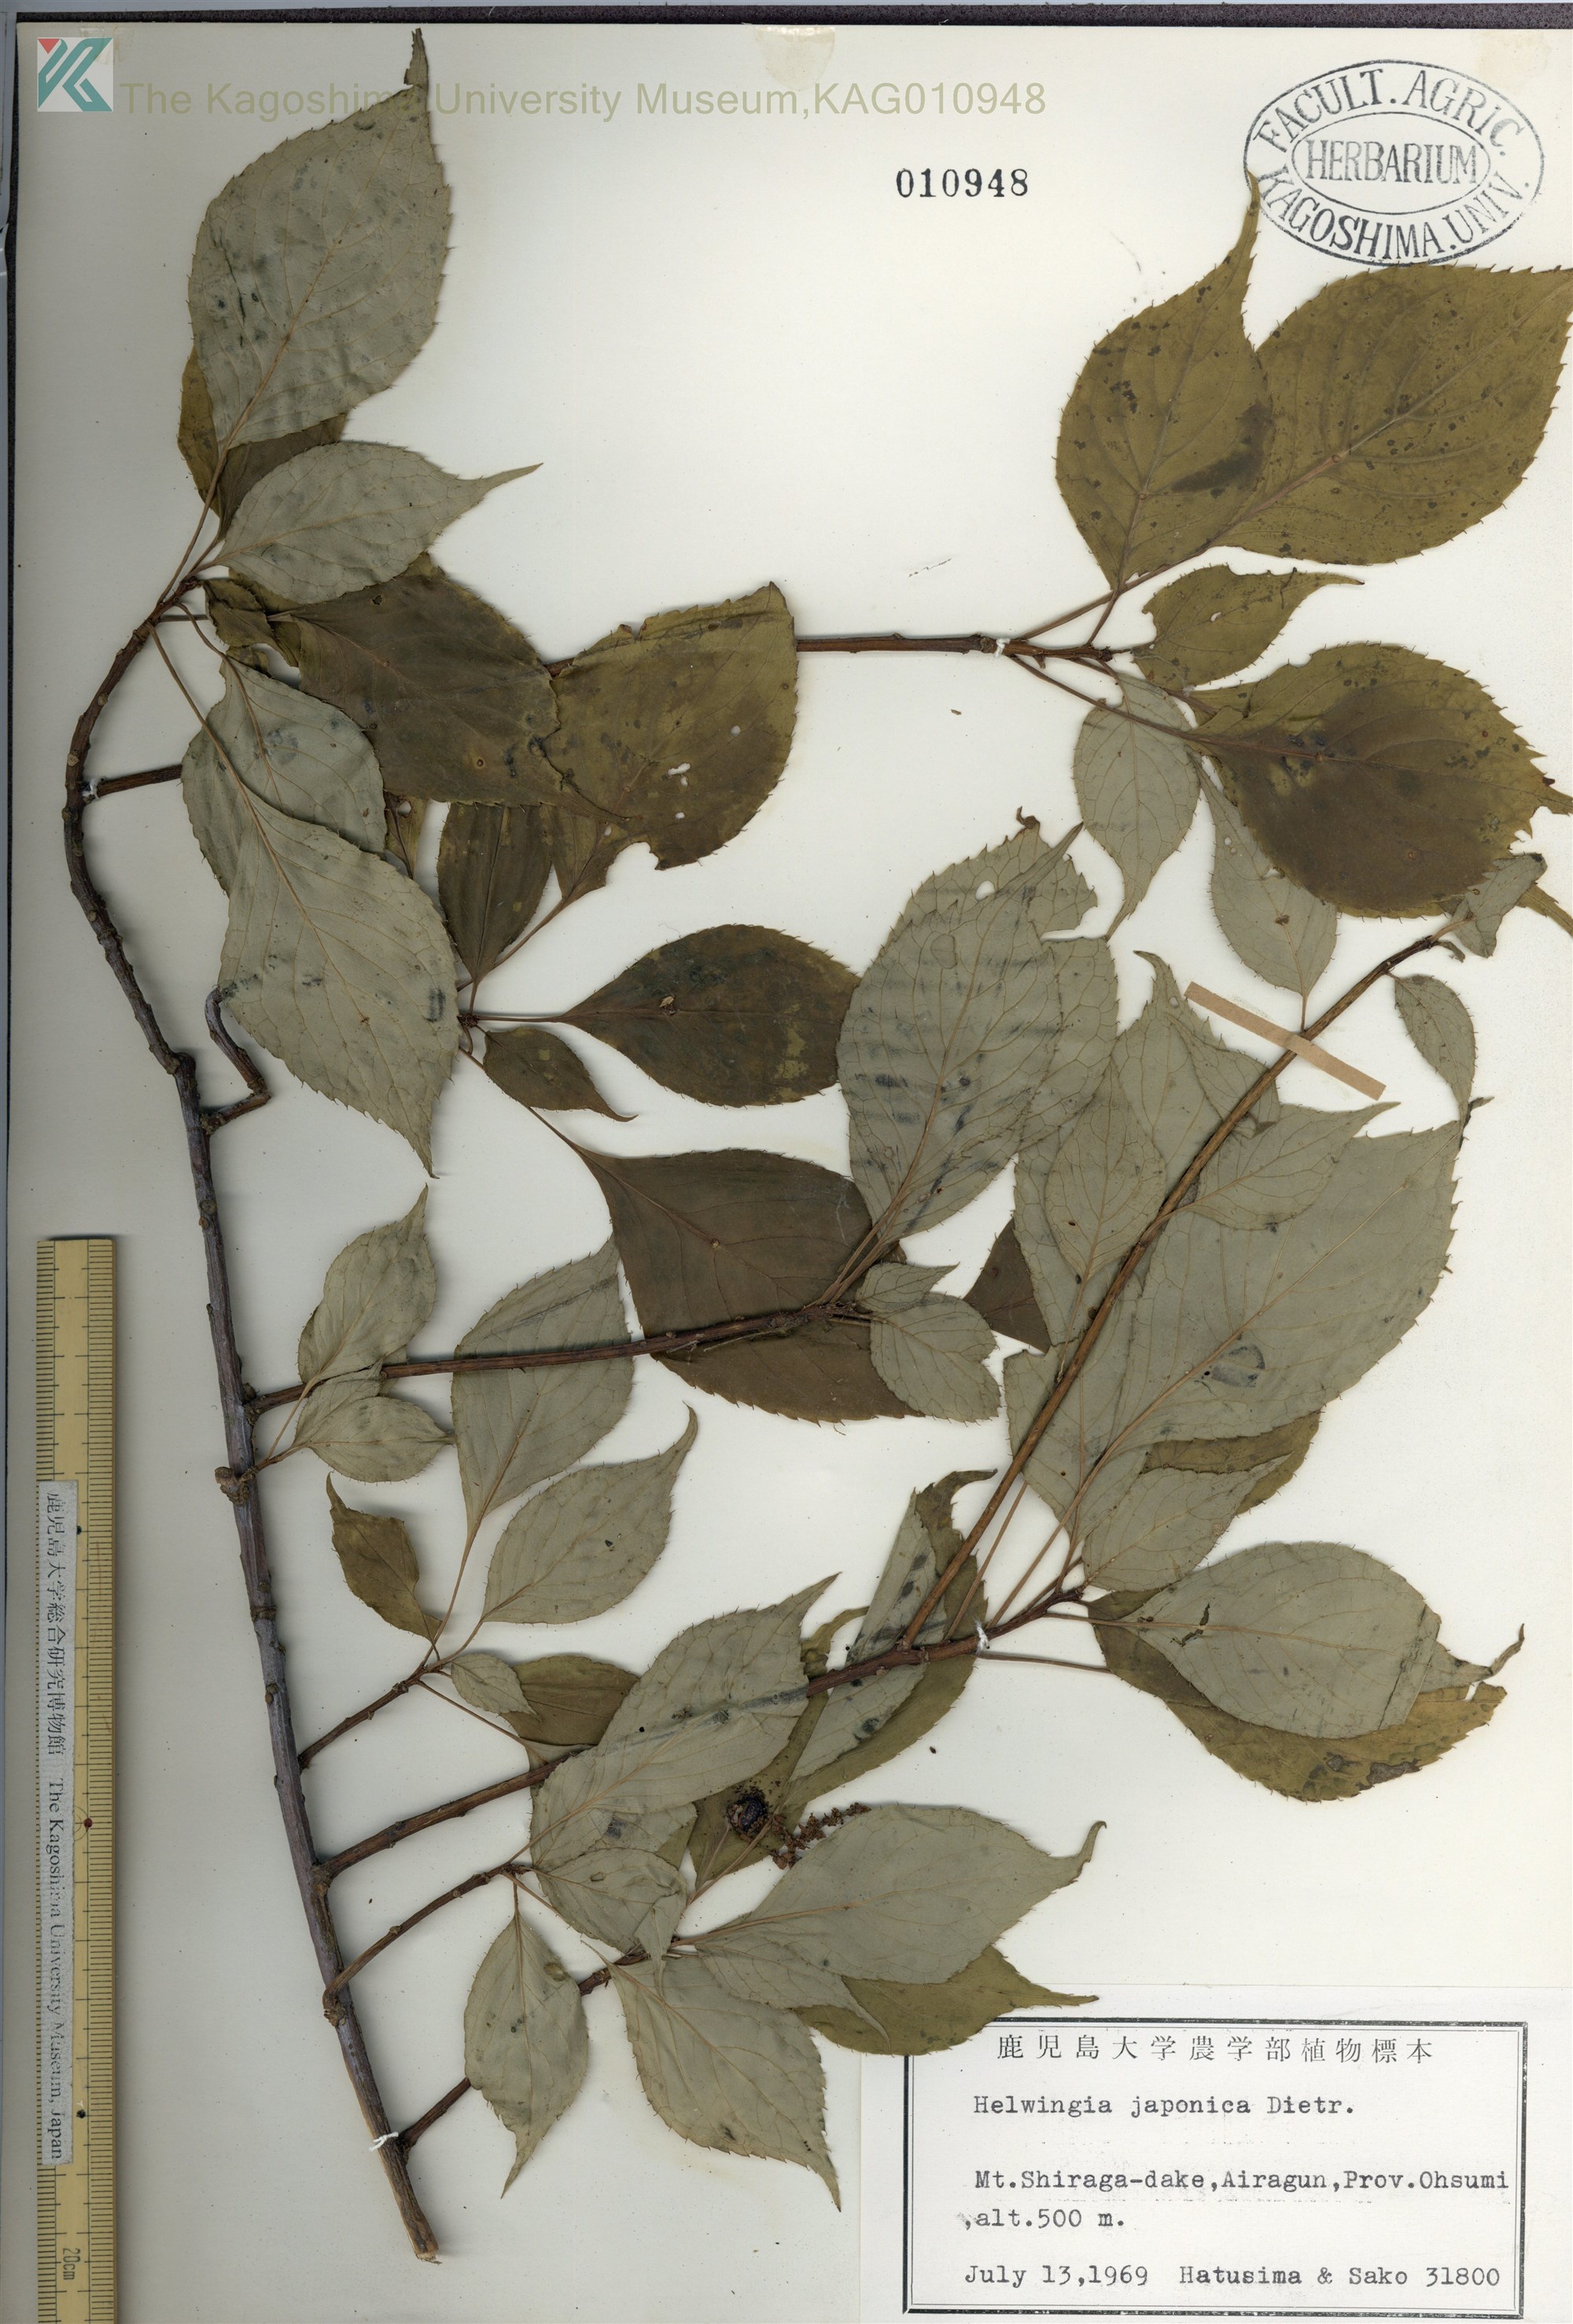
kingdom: Plantae
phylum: Tracheophyta
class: Magnoliopsida
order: Aquifoliales
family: Helwingiaceae
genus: Helwingia
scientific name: Helwingia japonica
